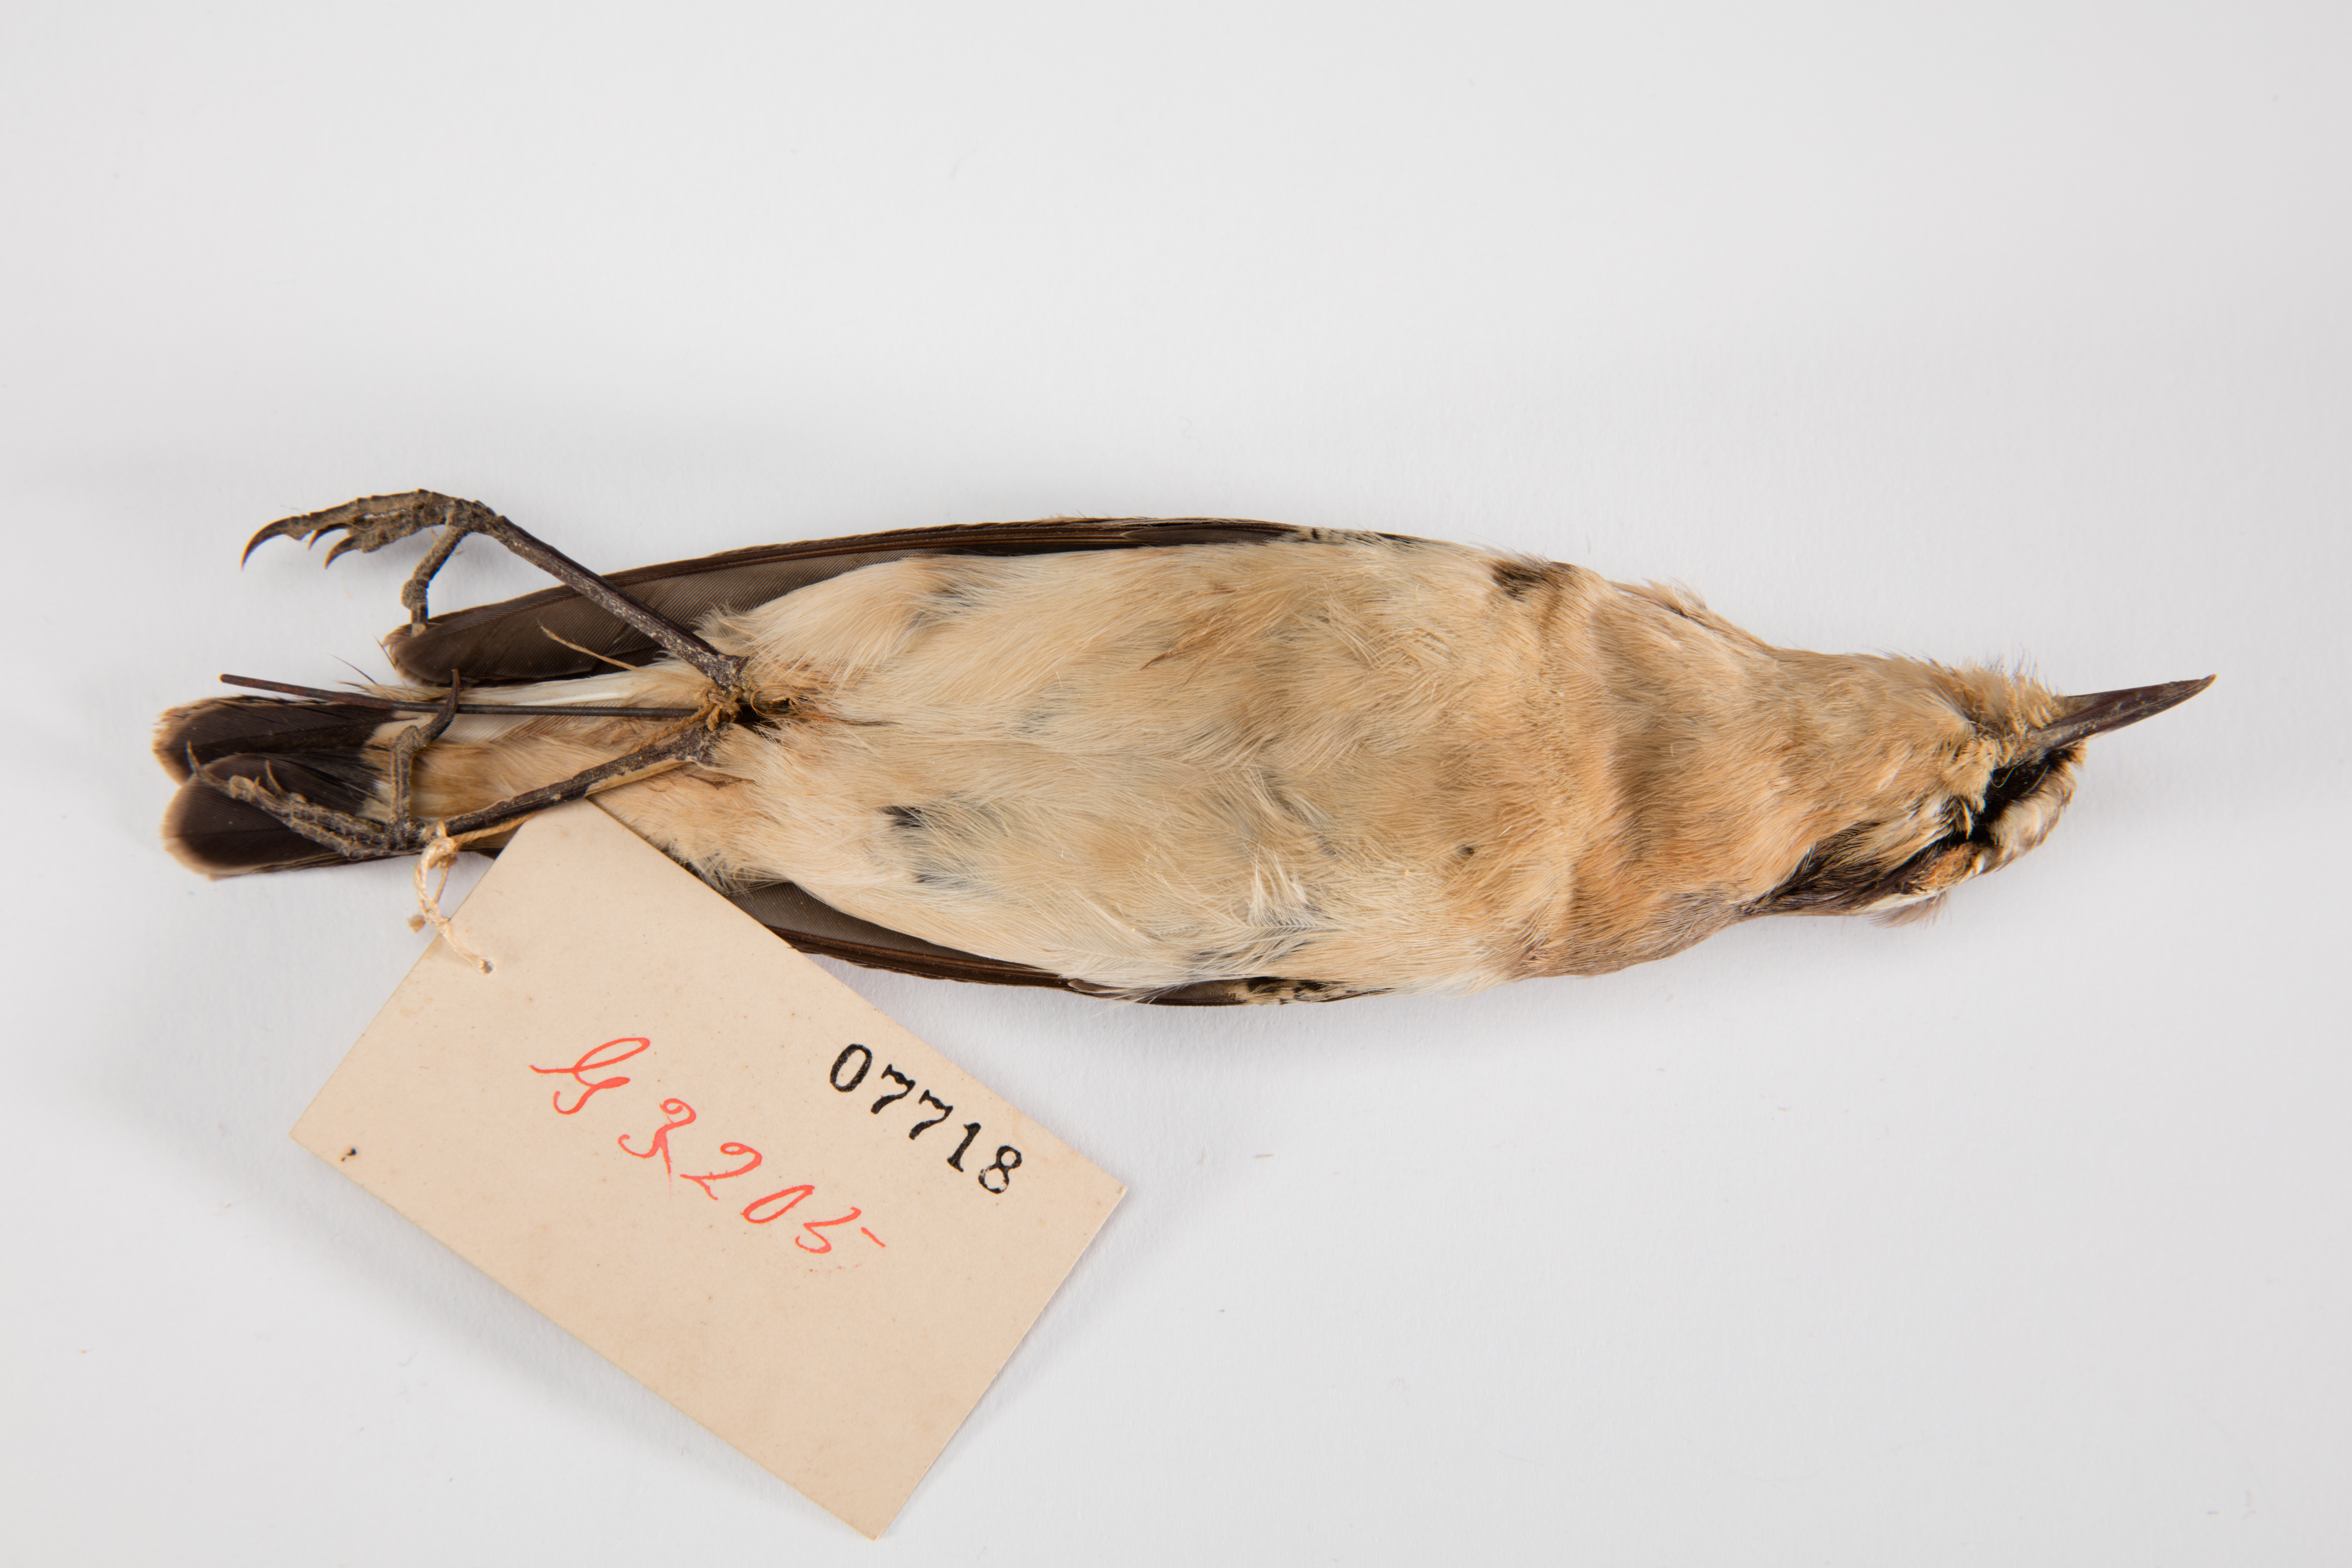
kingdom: Animalia
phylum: Chordata
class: Aves
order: Passeriformes
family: Muscicapidae
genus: Oenanthe
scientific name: Oenanthe oenanthe
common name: Northern wheatear
